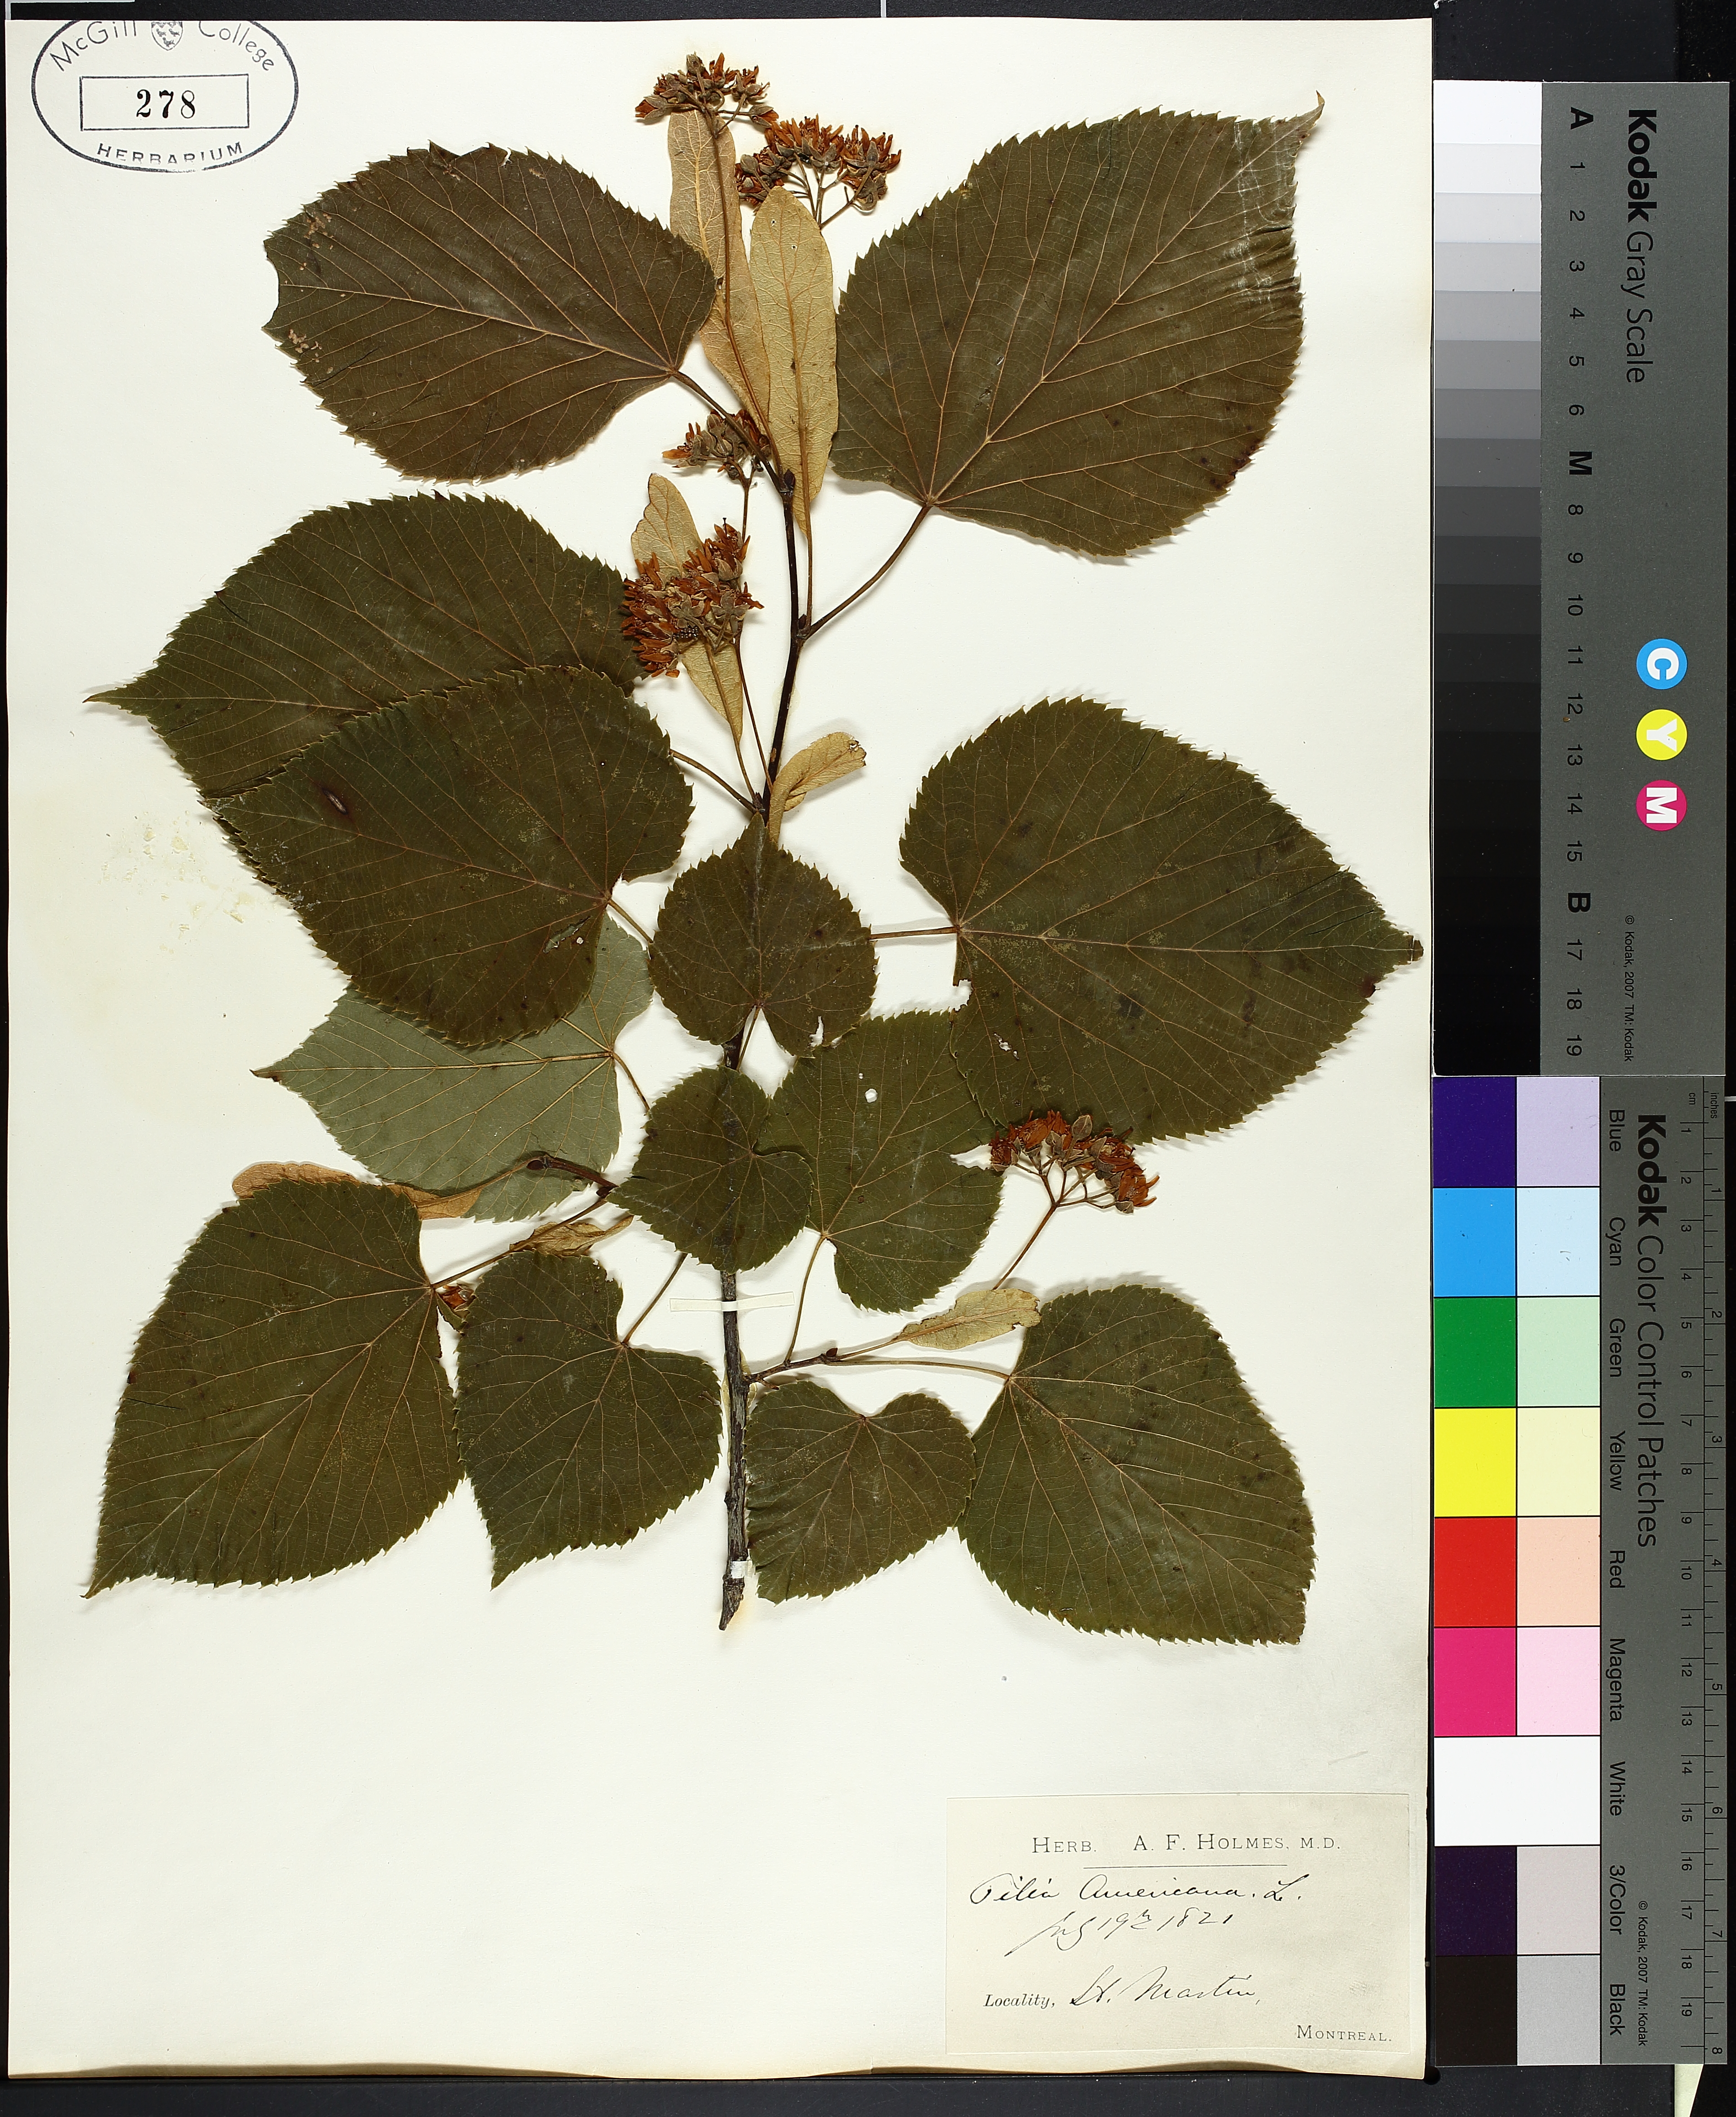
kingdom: Plantae
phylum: Tracheophyta
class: Magnoliopsida
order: Malvales
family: Malvaceae
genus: Tilia
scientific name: Tilia americana
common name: Basswood
